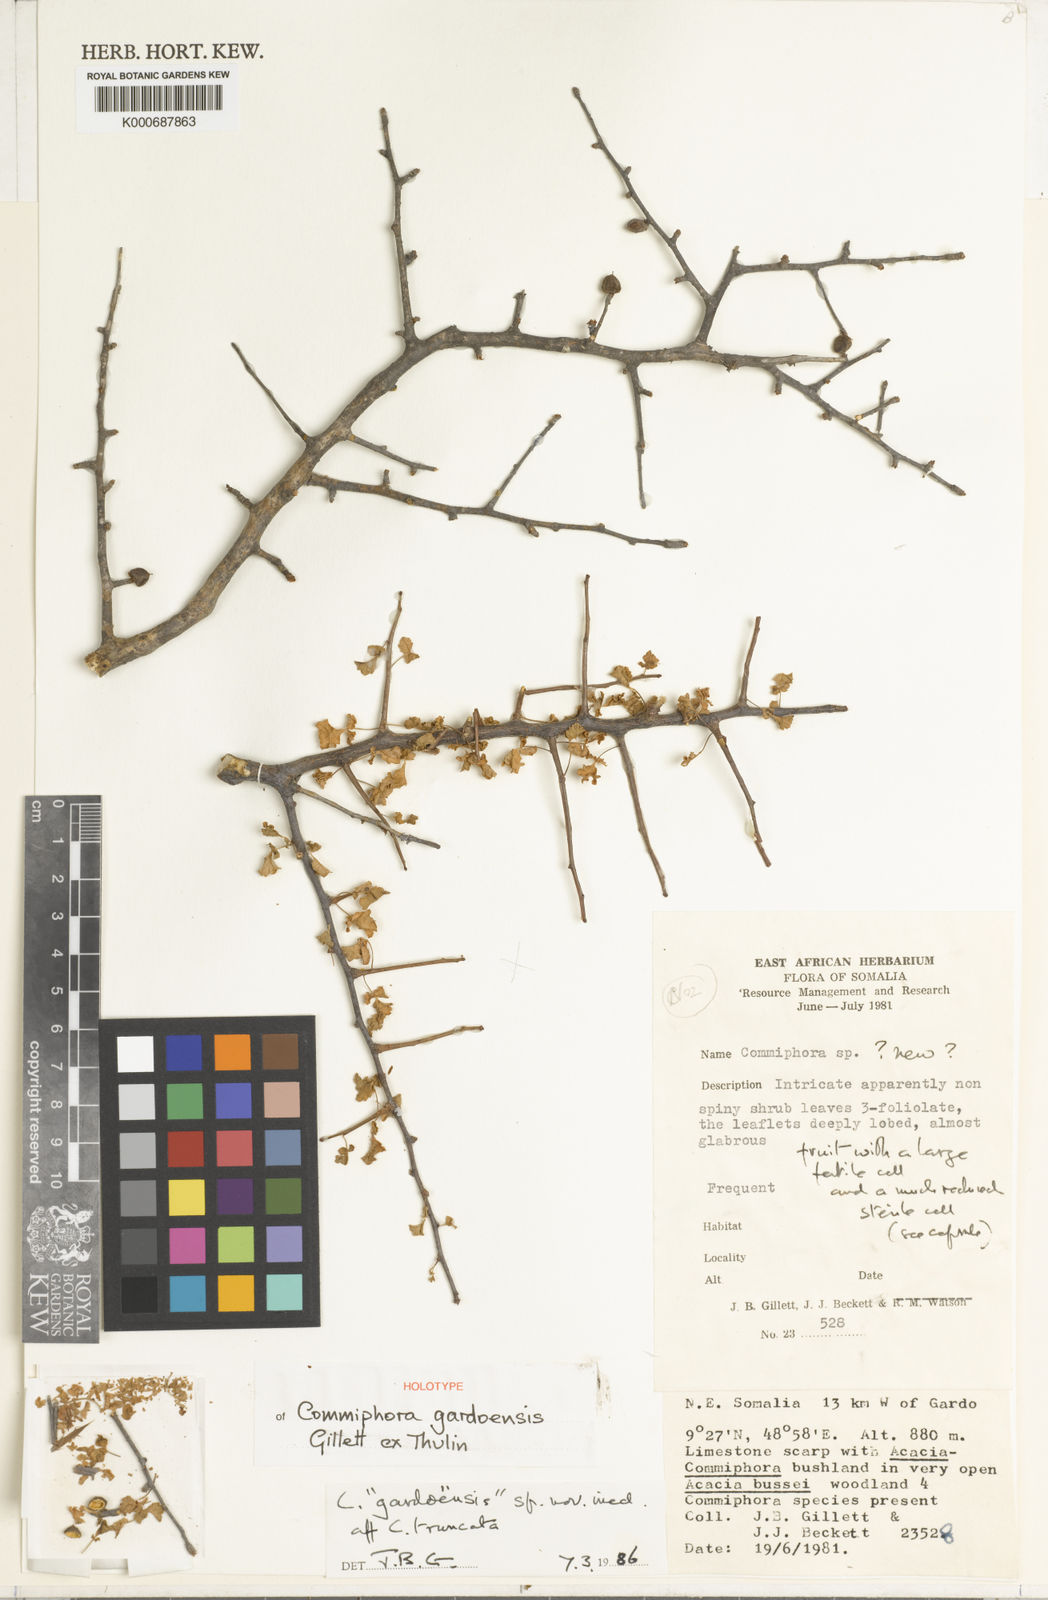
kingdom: Plantae
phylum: Tracheophyta
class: Magnoliopsida
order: Sapindales
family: Burseraceae
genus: Commiphora
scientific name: Commiphora gardoensis
